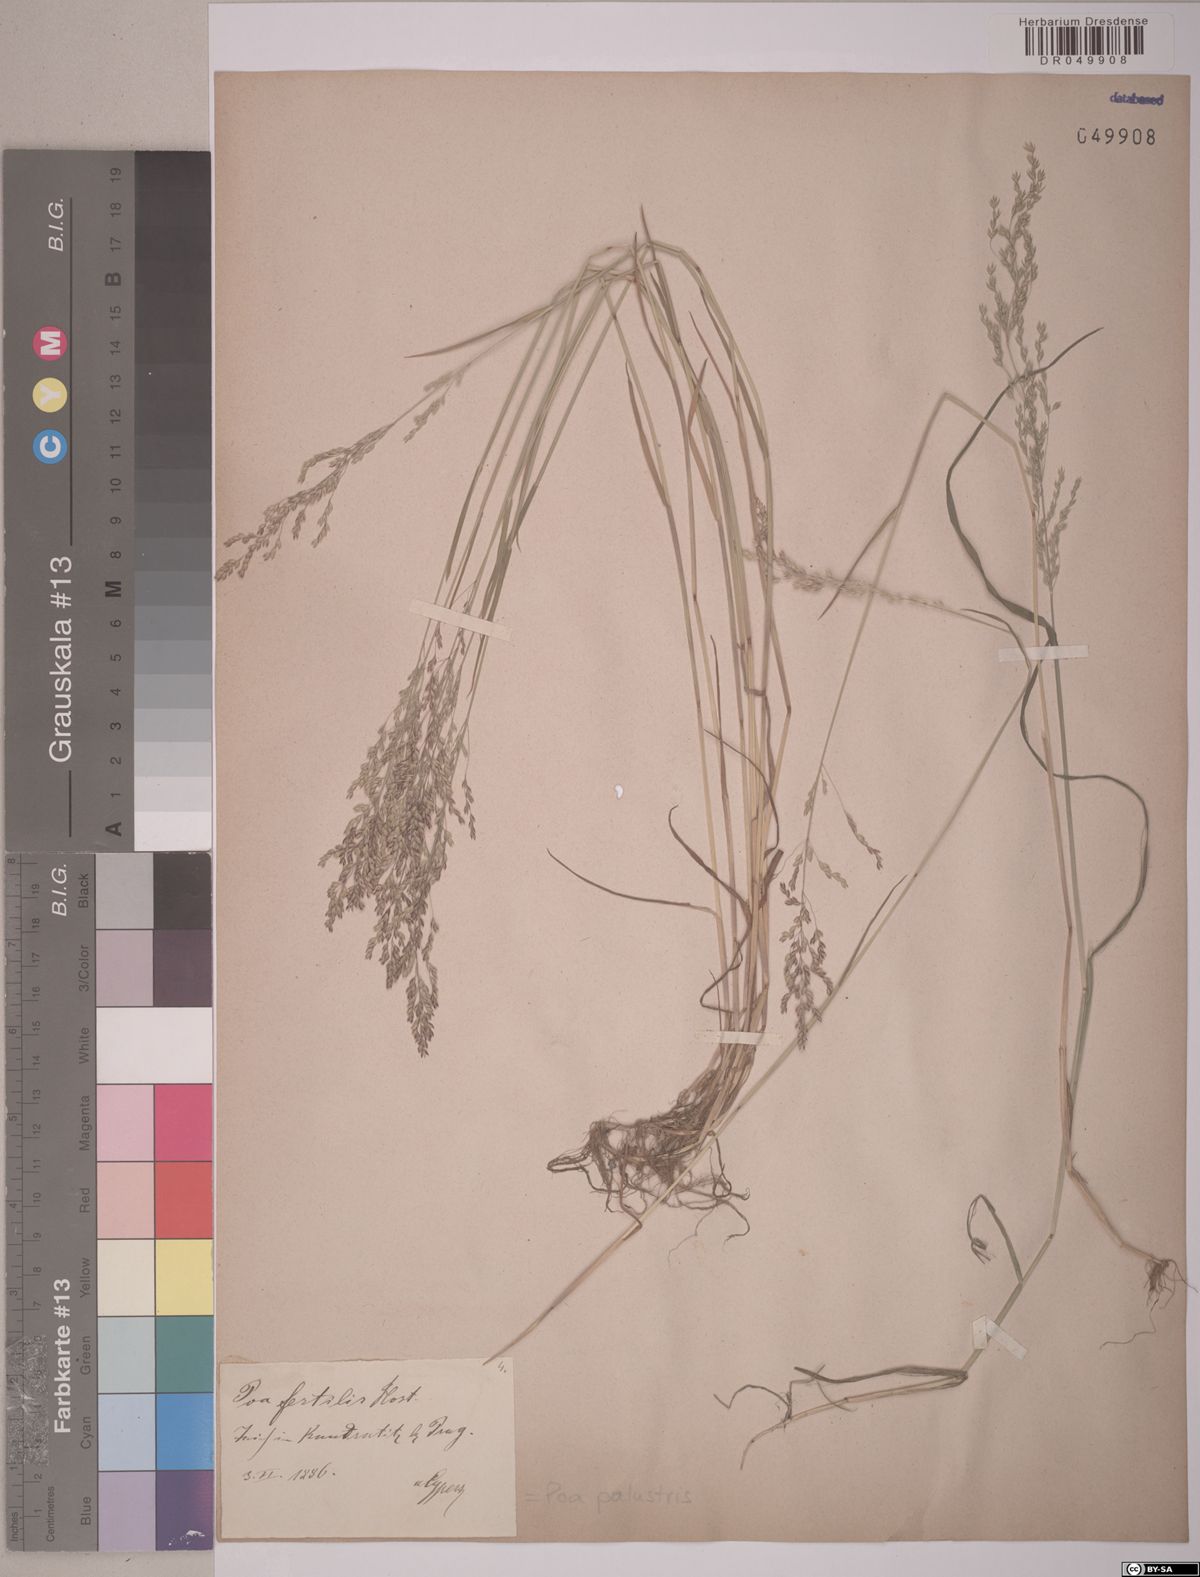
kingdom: Plantae
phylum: Tracheophyta
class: Liliopsida
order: Poales
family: Poaceae
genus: Poa
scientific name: Poa palustris
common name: Swamp meadow-grass
